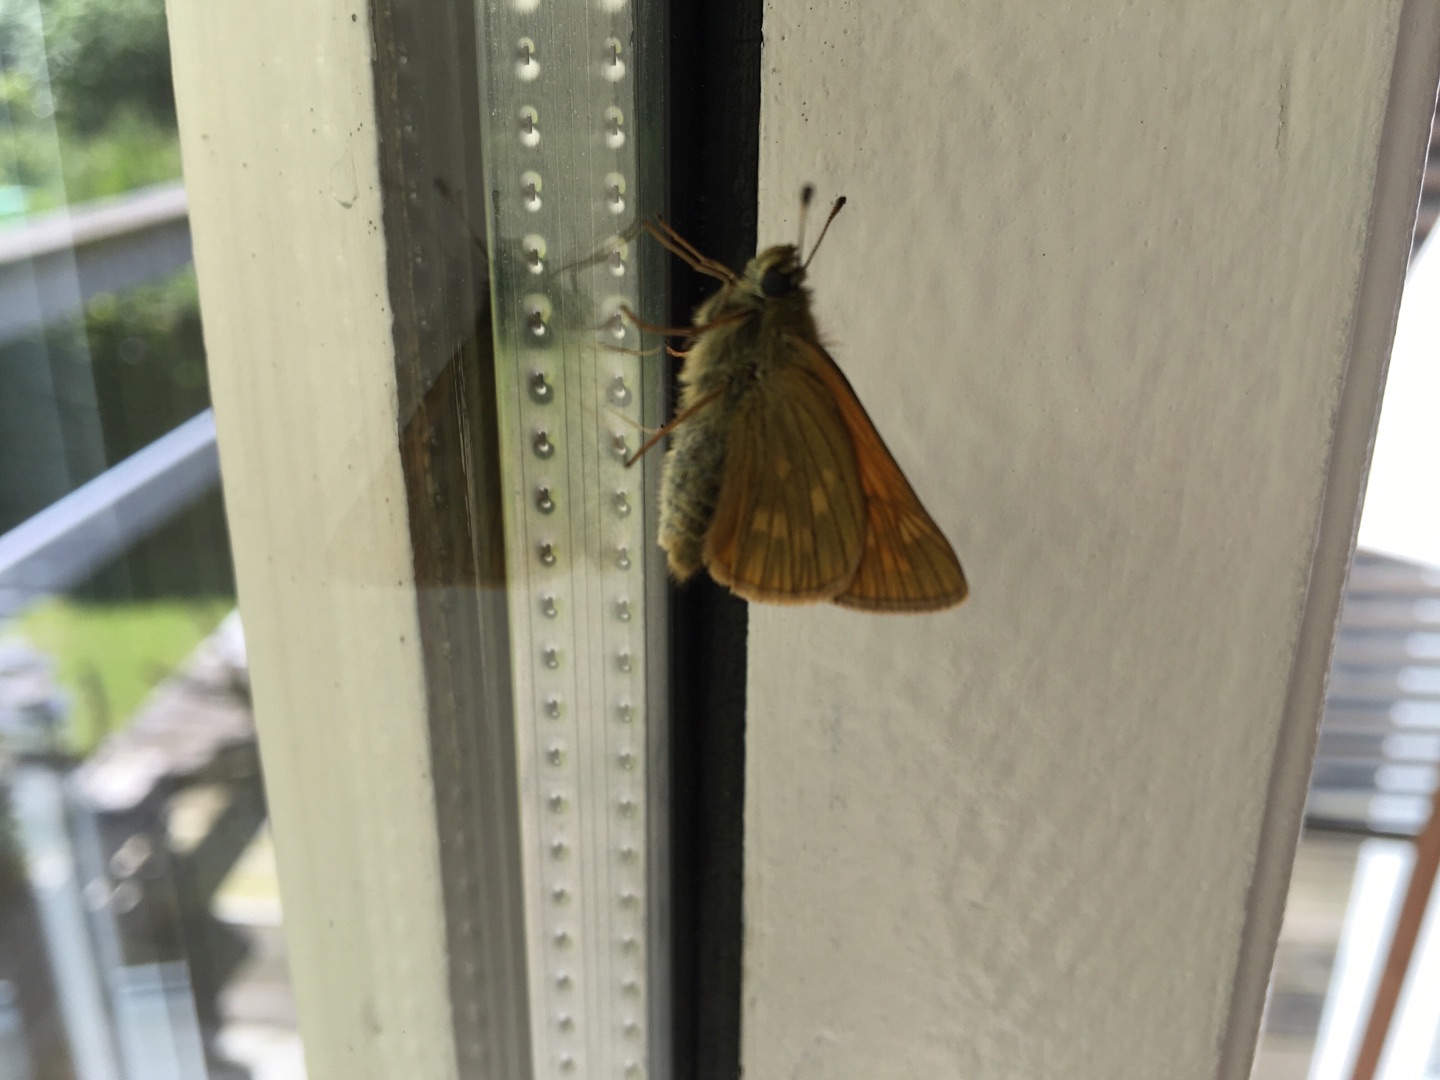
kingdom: Animalia
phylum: Arthropoda
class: Insecta
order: Lepidoptera
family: Hesperiidae
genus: Ochlodes
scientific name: Ochlodes venata
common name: Stor bredpande
